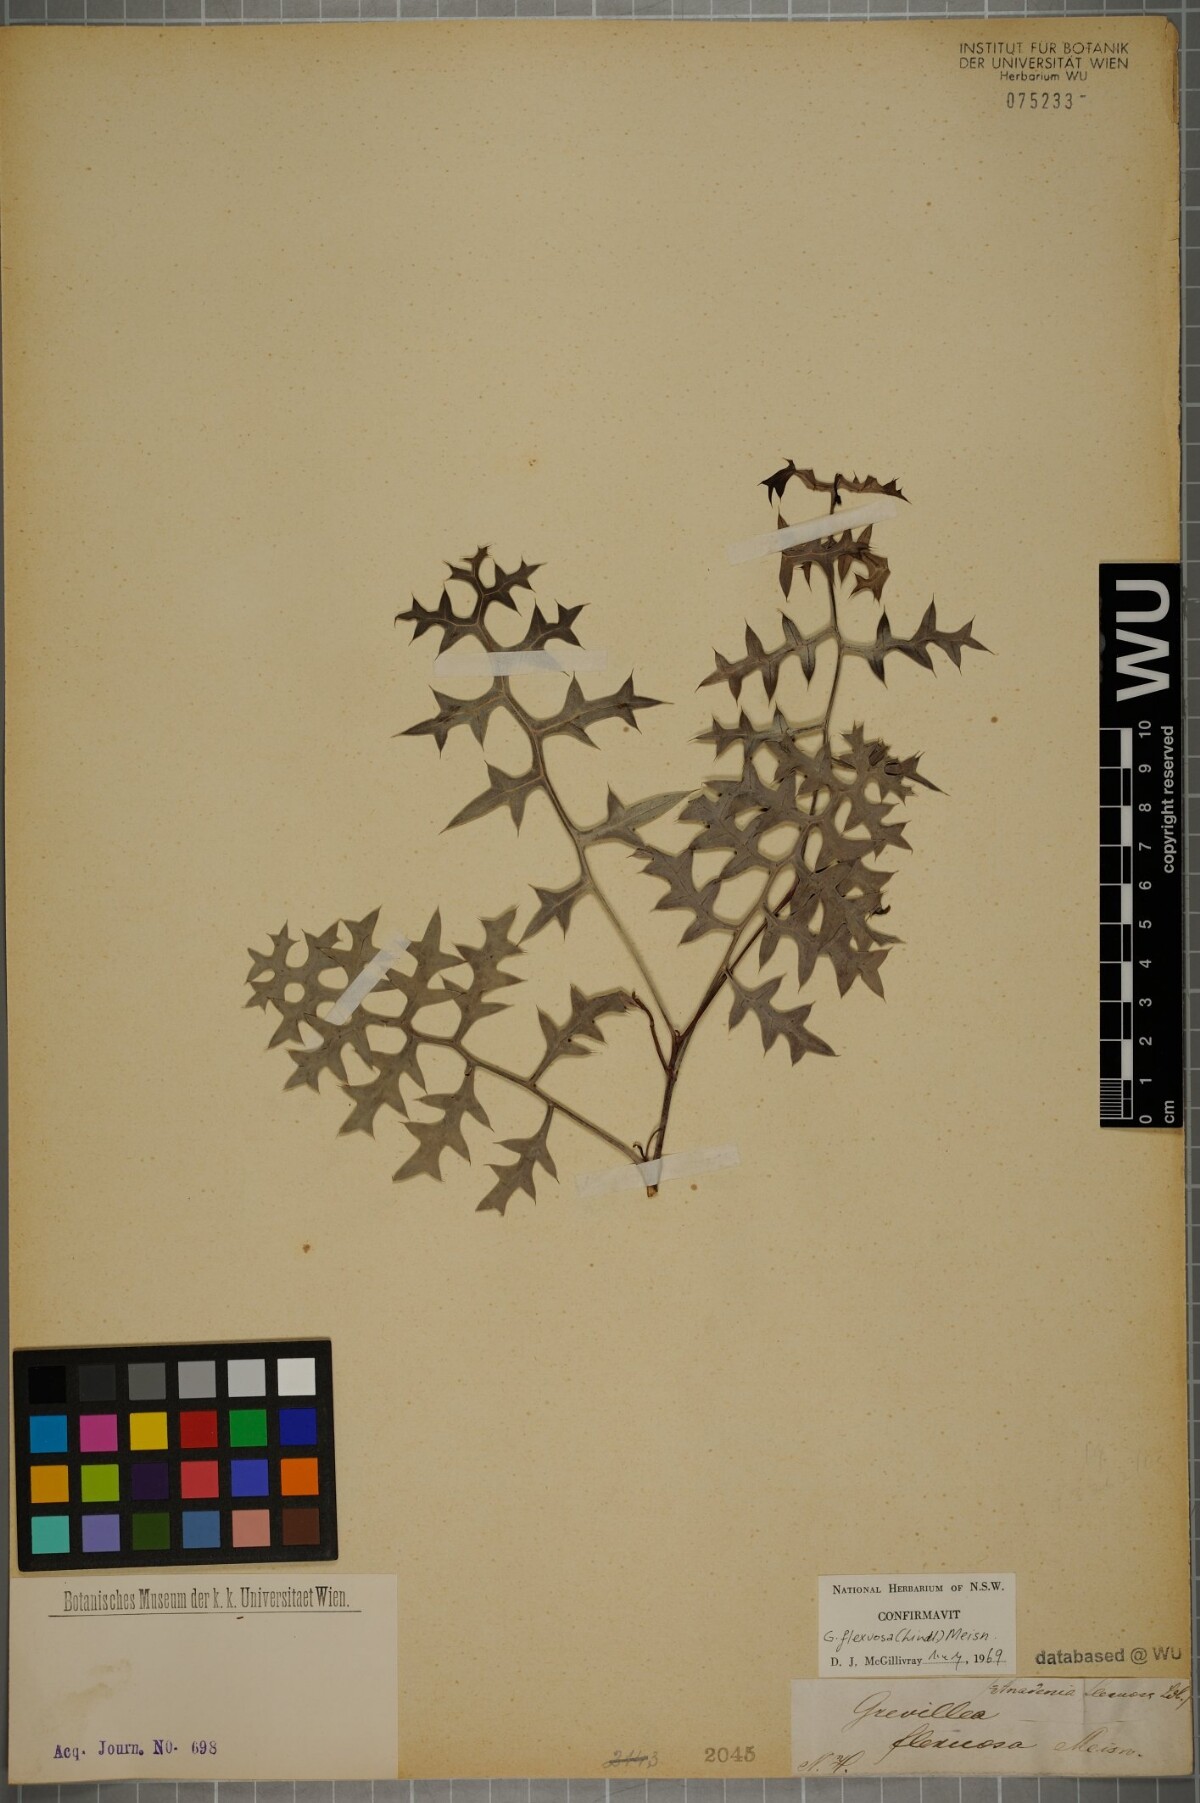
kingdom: Plantae
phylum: Tracheophyta
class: Magnoliopsida
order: Proteales
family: Proteaceae
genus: Grevillea
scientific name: Grevillea flexuosa
